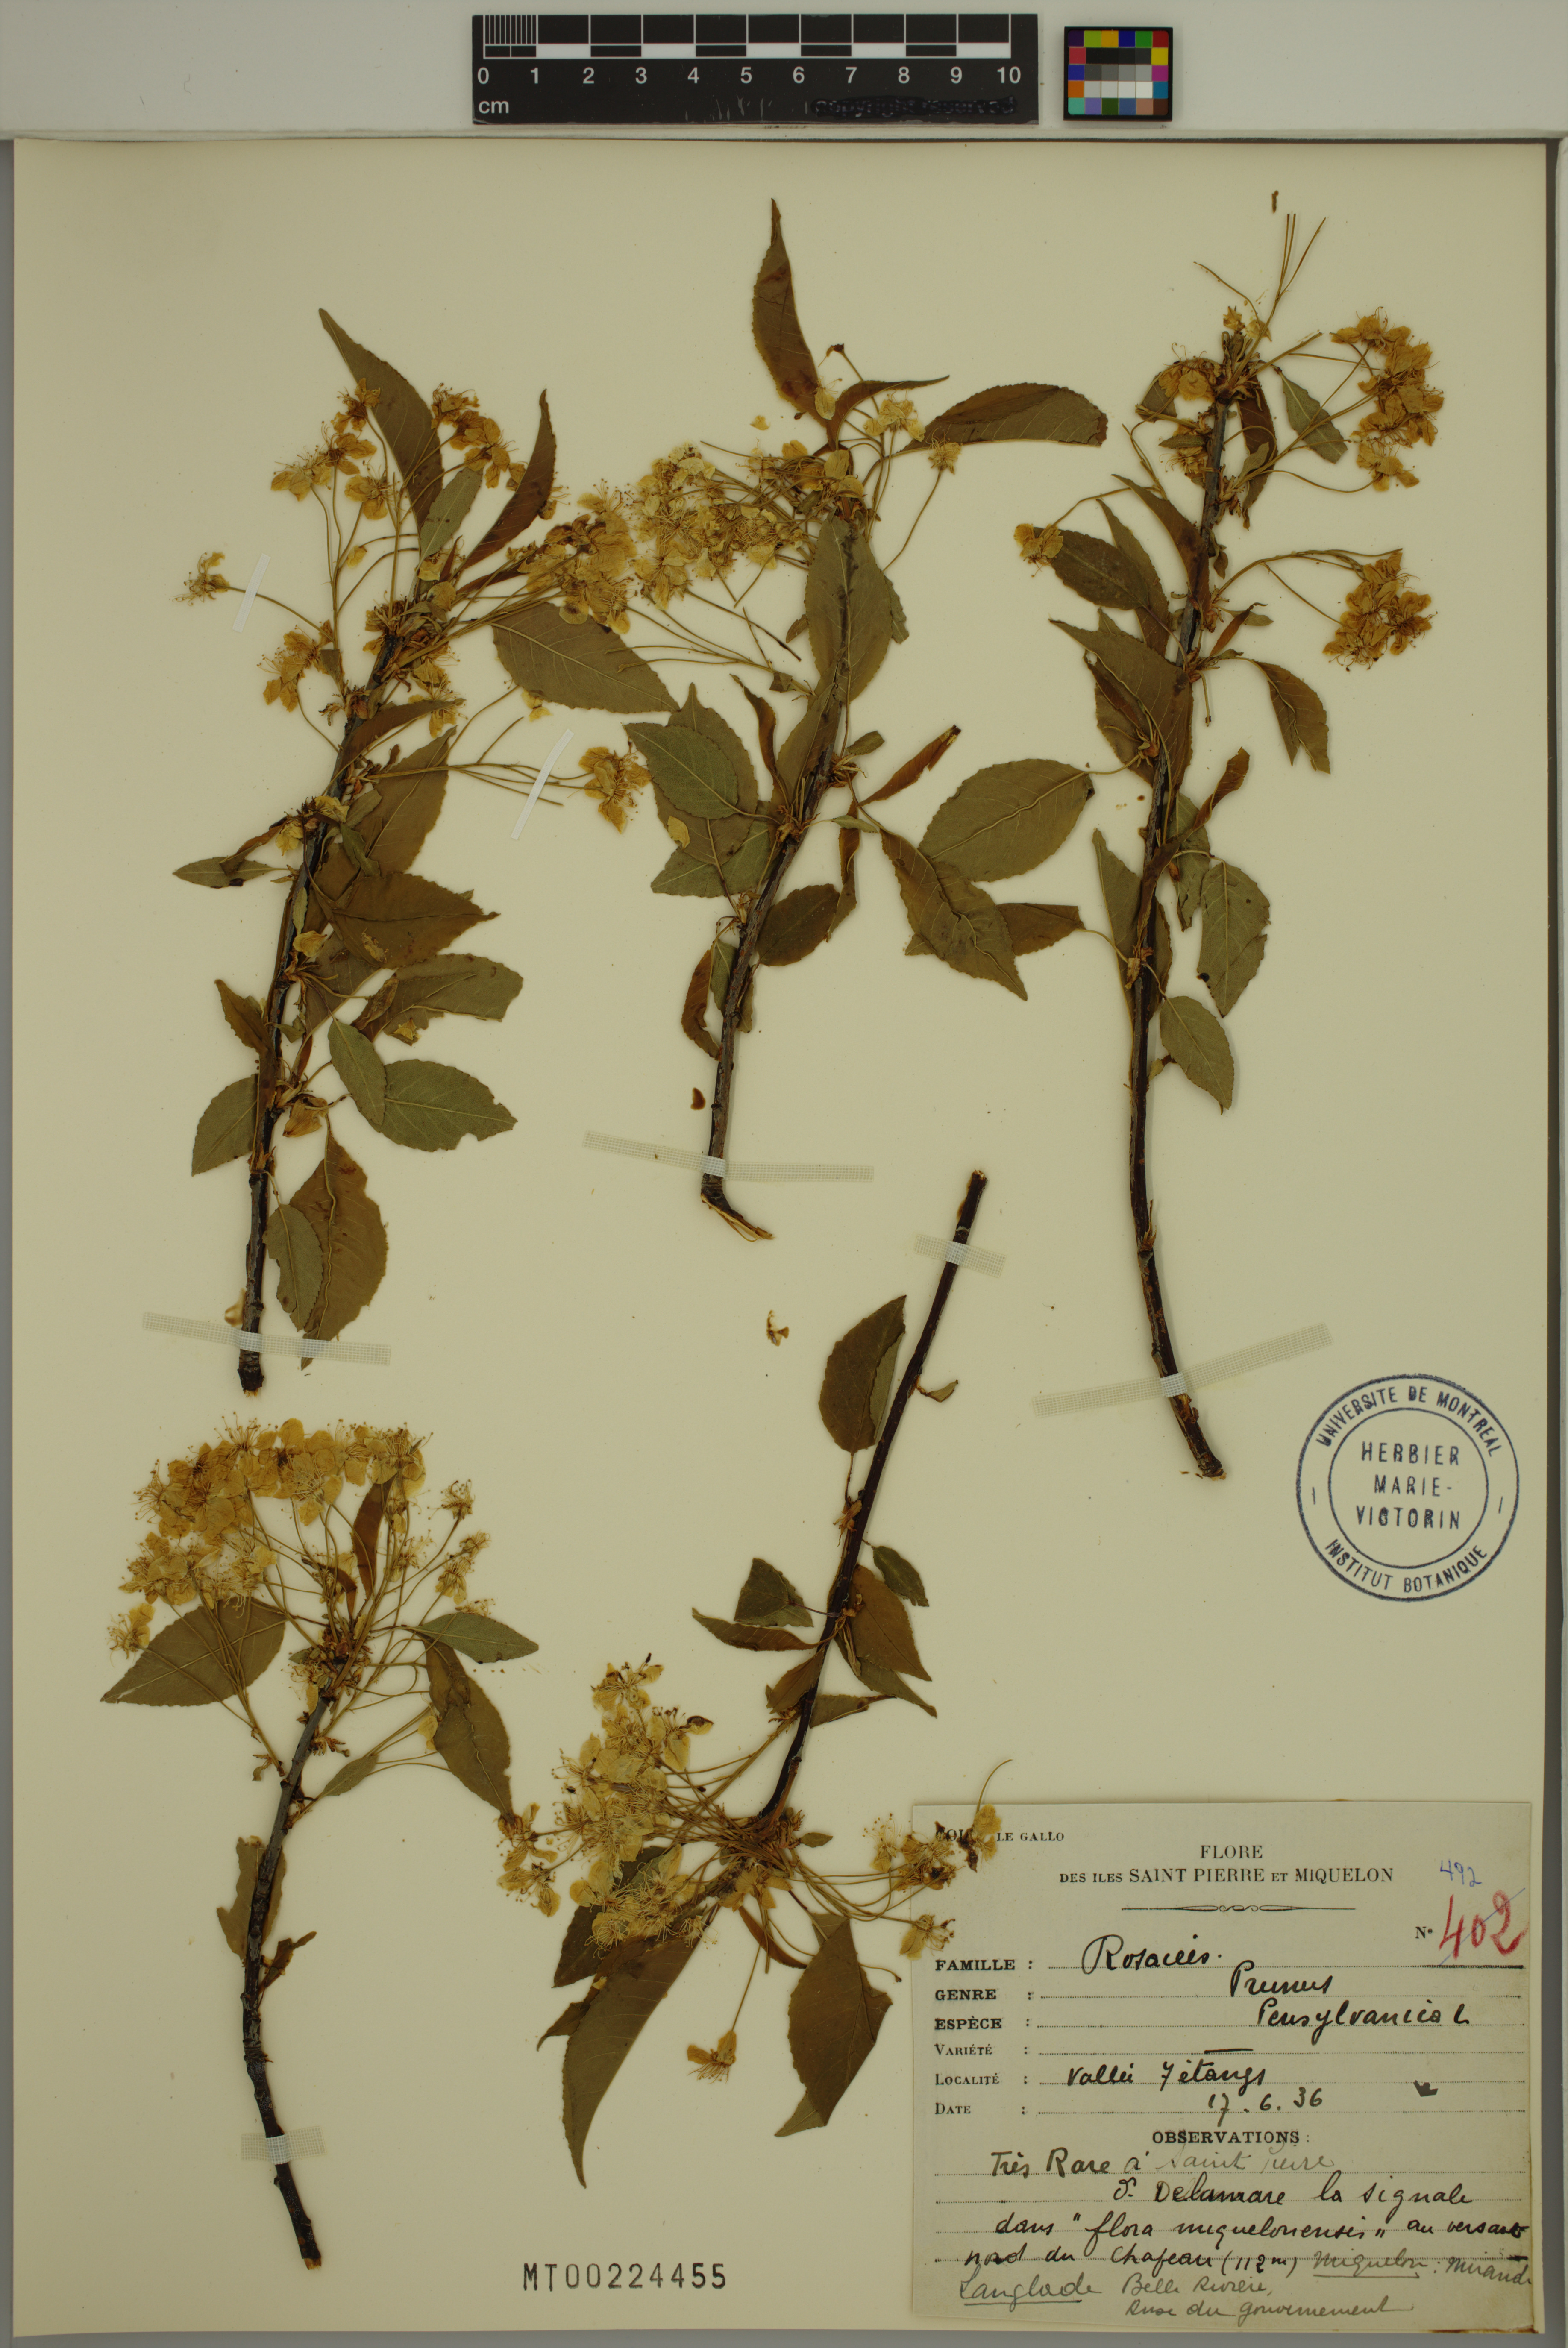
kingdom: Plantae
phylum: Tracheophyta
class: Magnoliopsida
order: Rosales
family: Rosaceae
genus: Prunus
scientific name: Prunus pensylvanica
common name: Pin cherry
